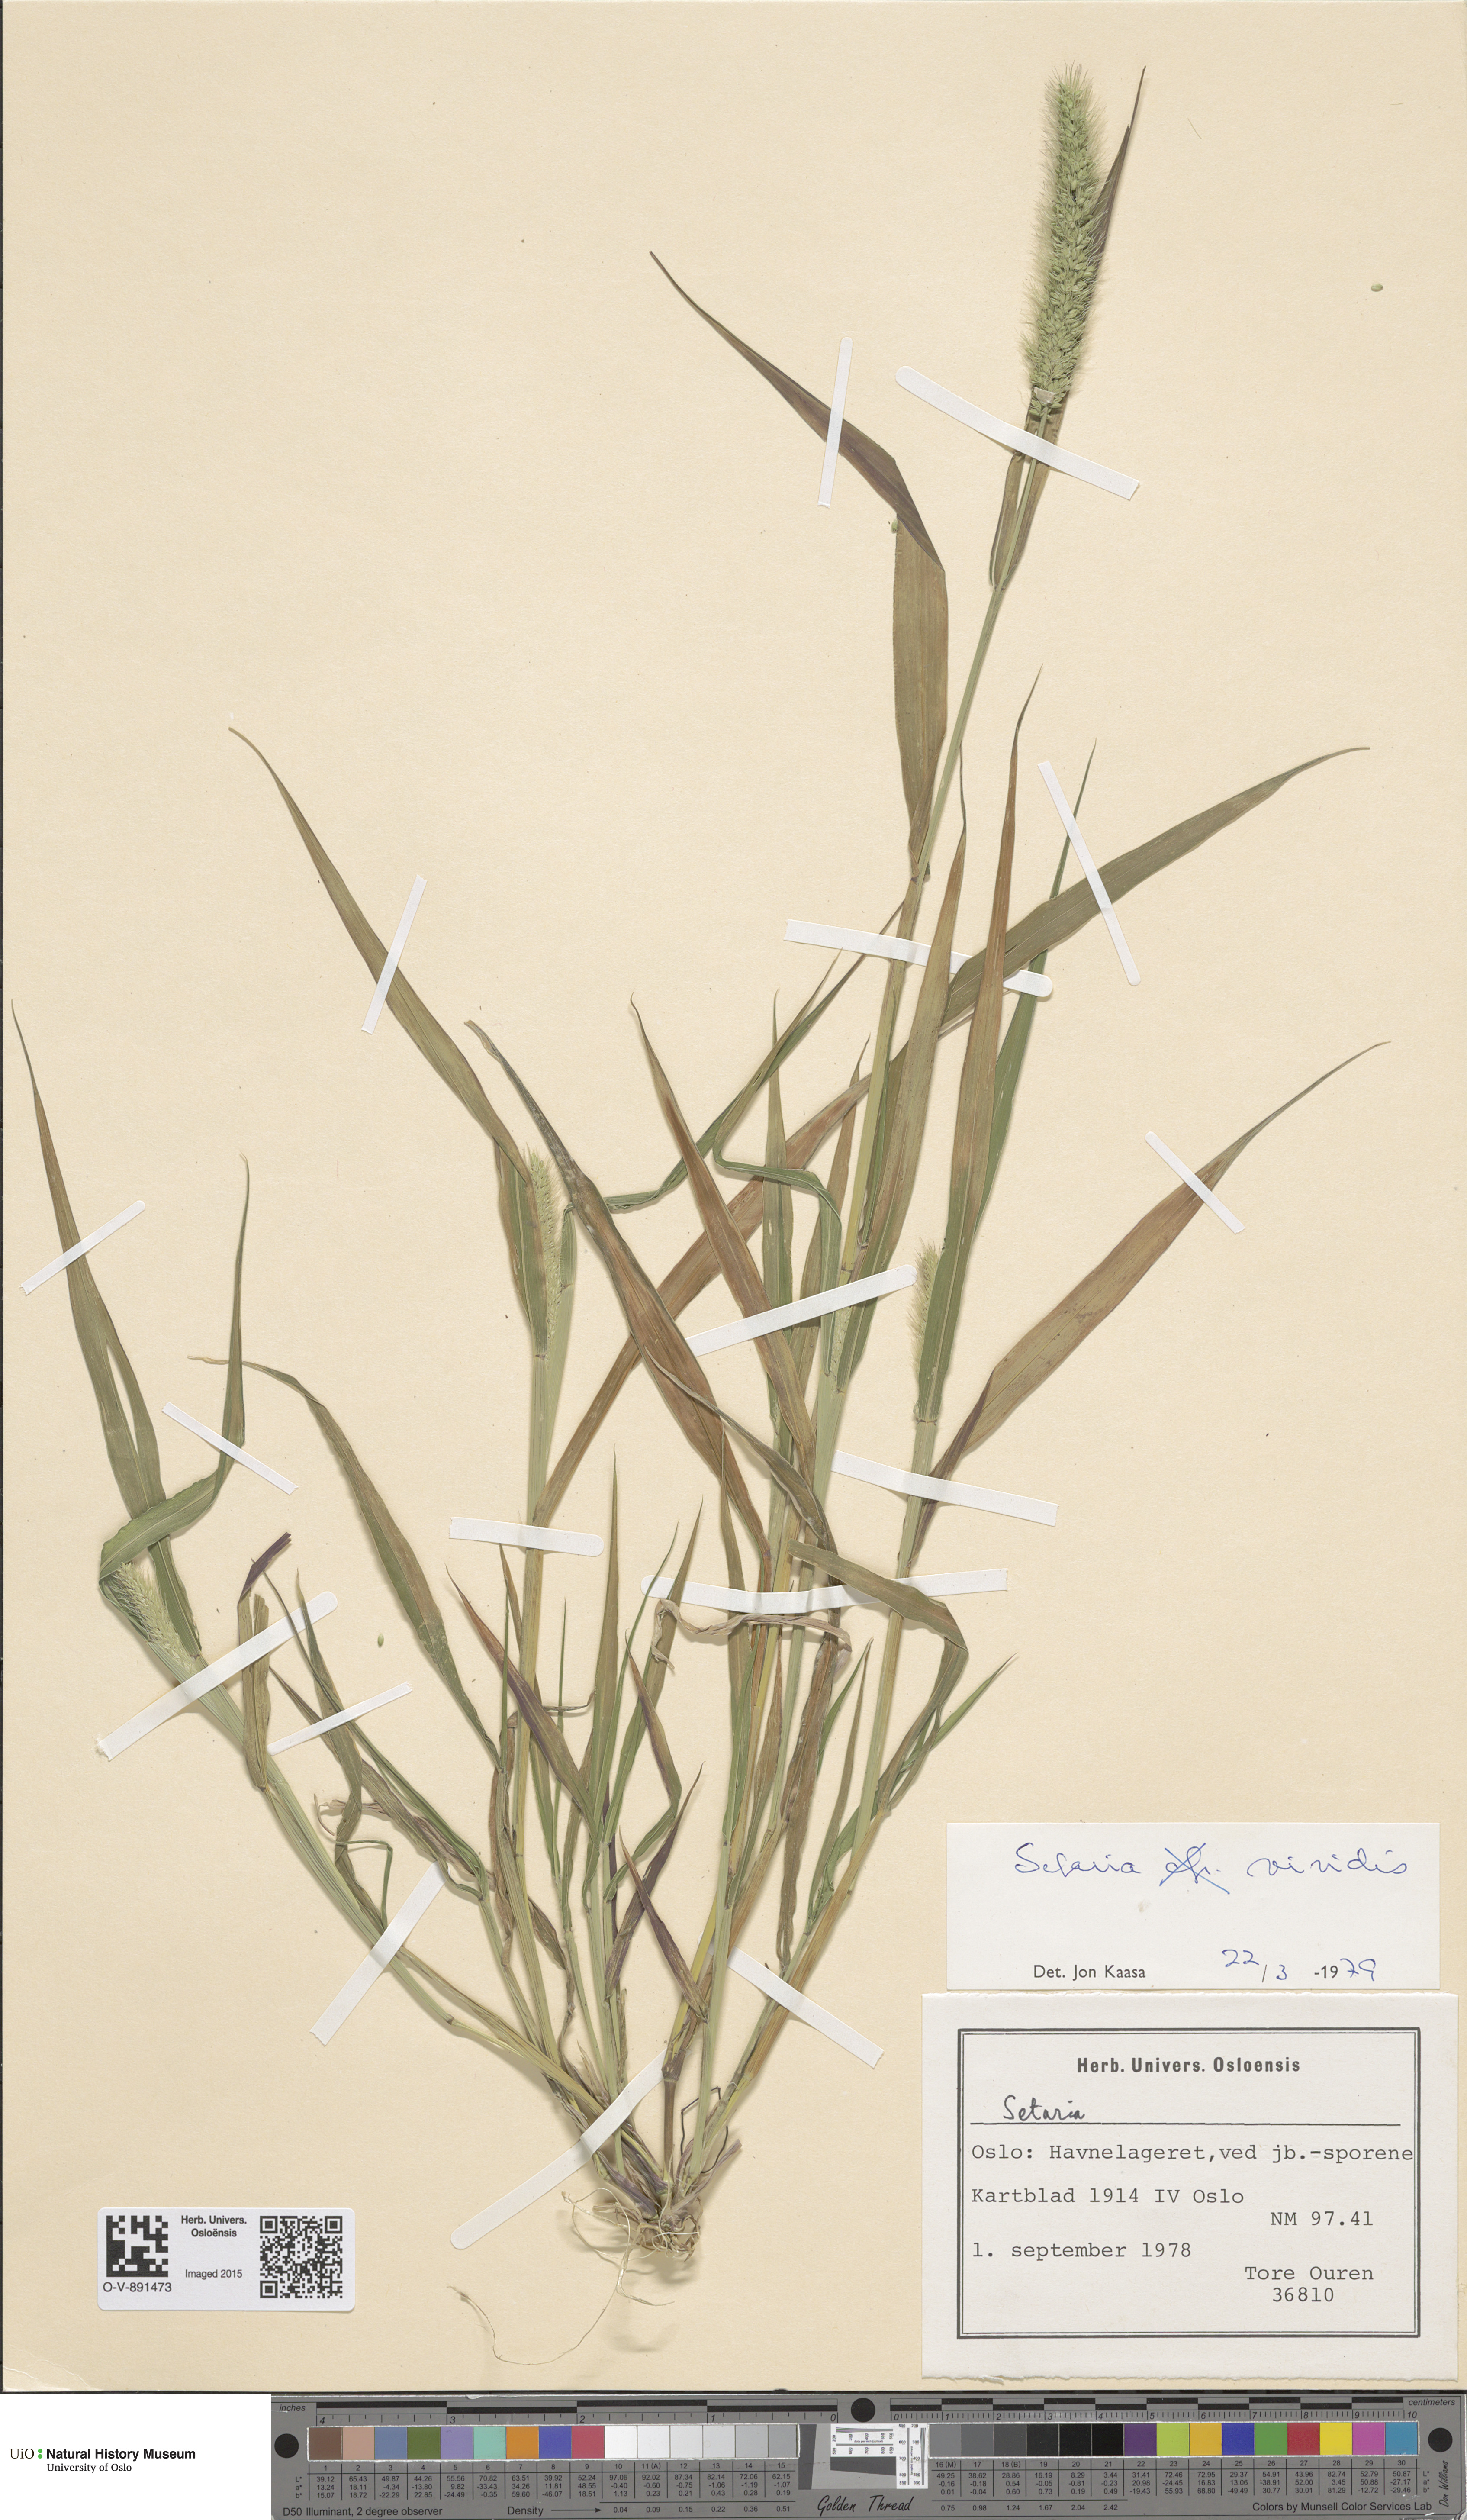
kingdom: Plantae
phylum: Tracheophyta
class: Liliopsida
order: Poales
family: Poaceae
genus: Setaria
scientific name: Setaria viridis
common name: Green bristlegrass
